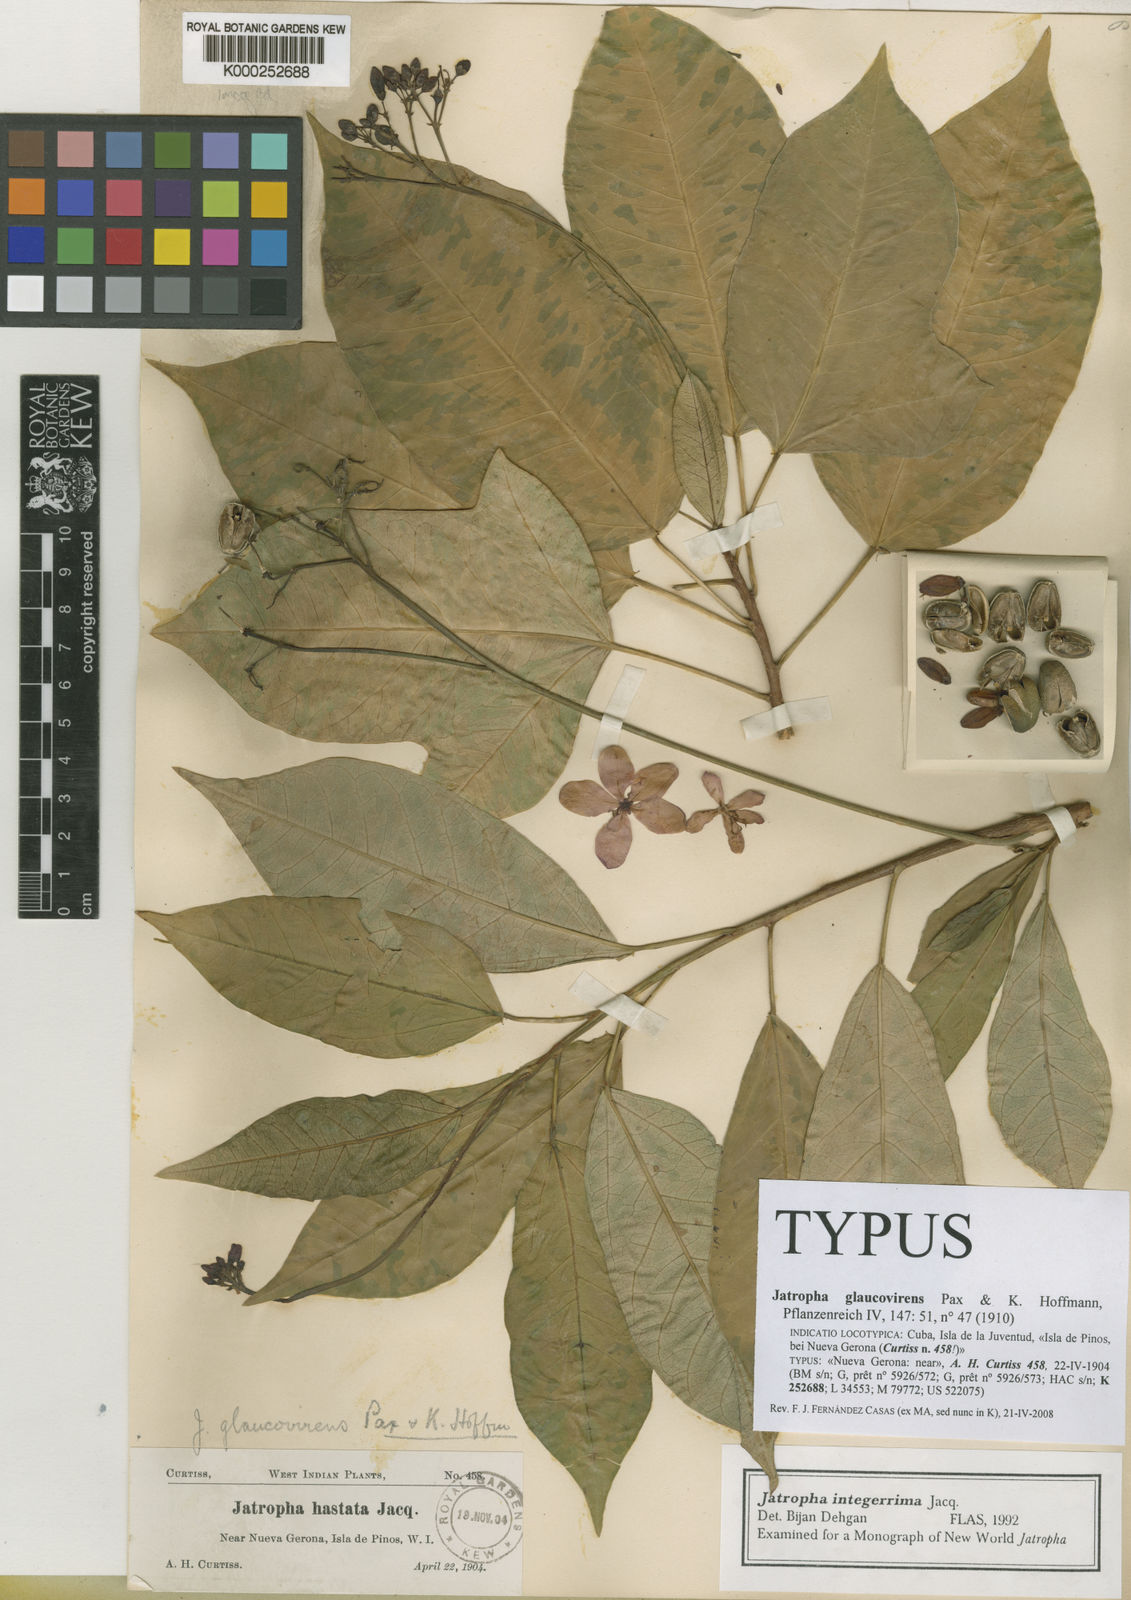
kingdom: Plantae
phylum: Tracheophyta
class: Magnoliopsida
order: Malpighiales
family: Euphorbiaceae
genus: Jatropha
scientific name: Jatropha integerrima
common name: Peregrina
